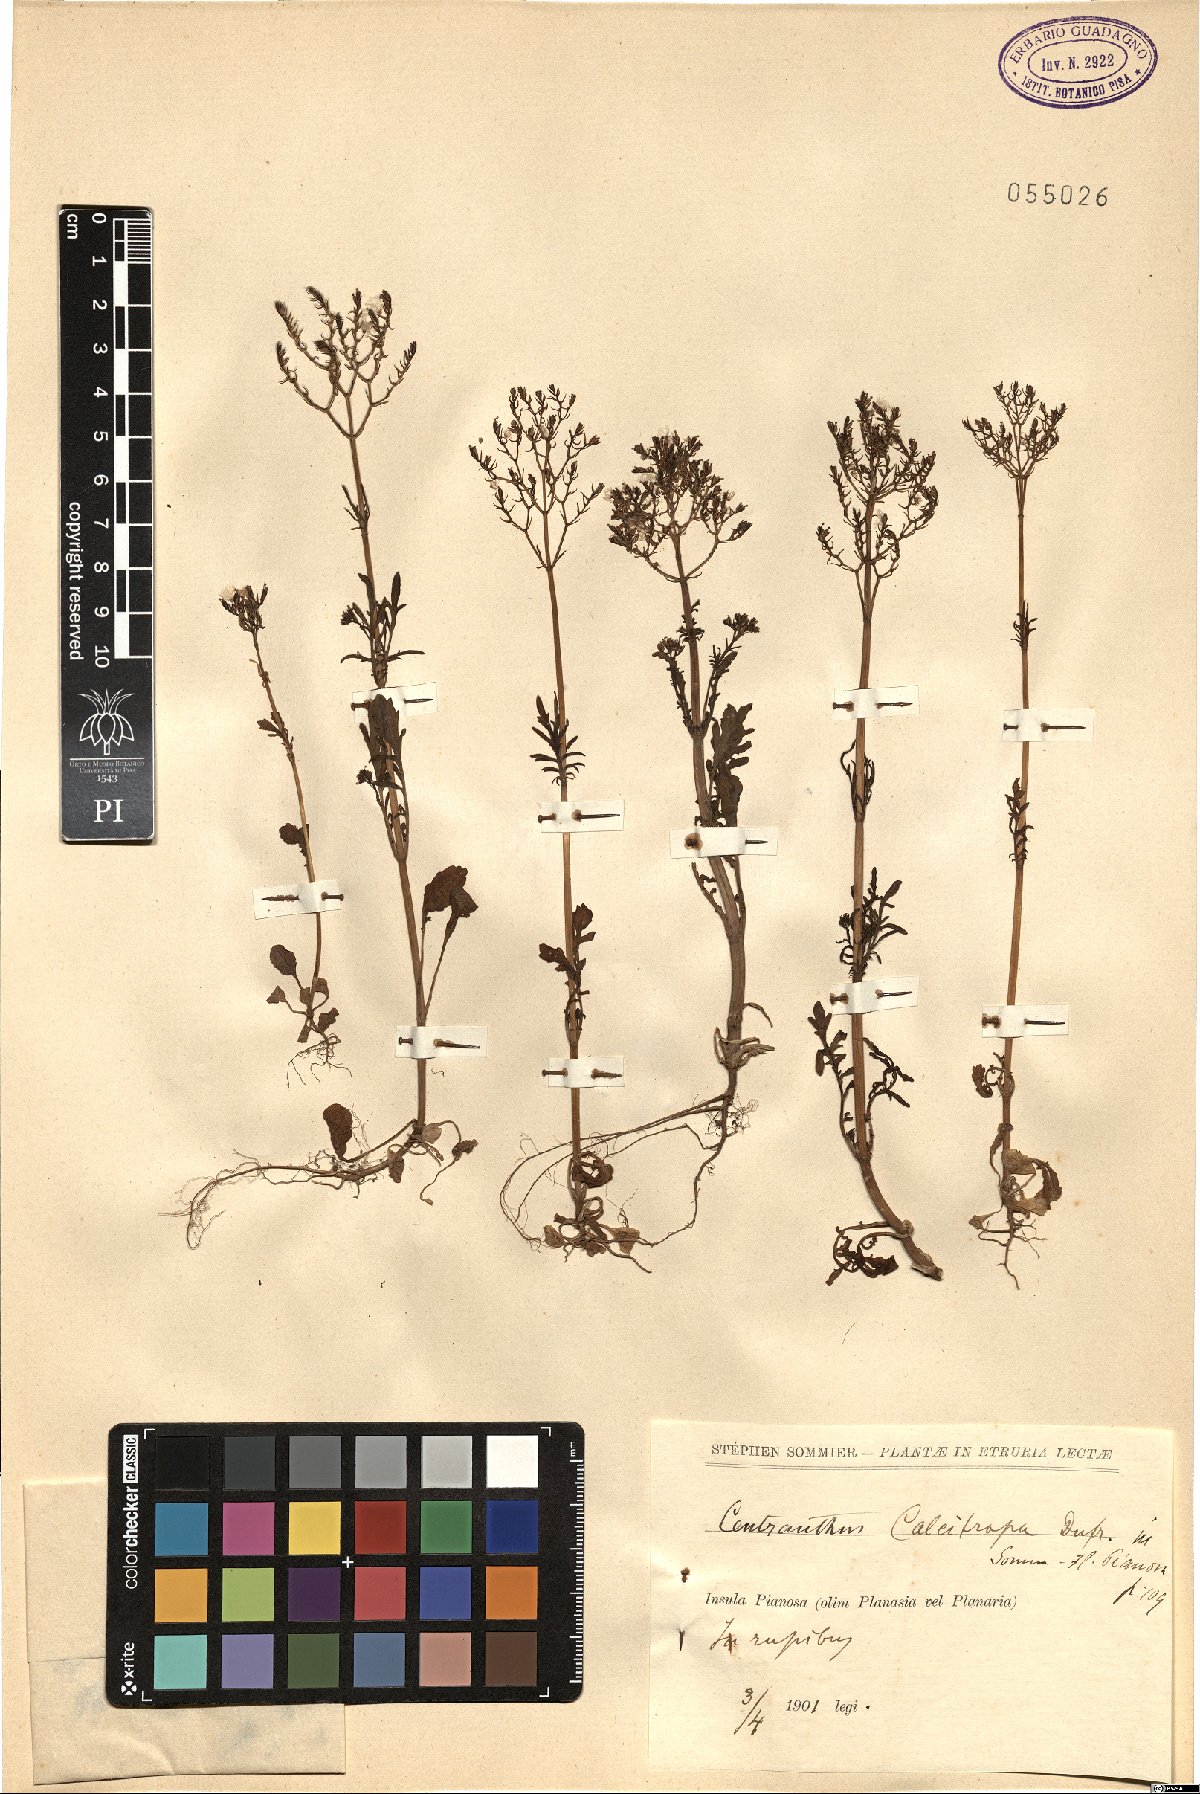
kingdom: Plantae
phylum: Tracheophyta
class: Magnoliopsida
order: Dipsacales
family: Caprifoliaceae
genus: Centranthus
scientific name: Centranthus calcitrapae
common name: Annual valerian
